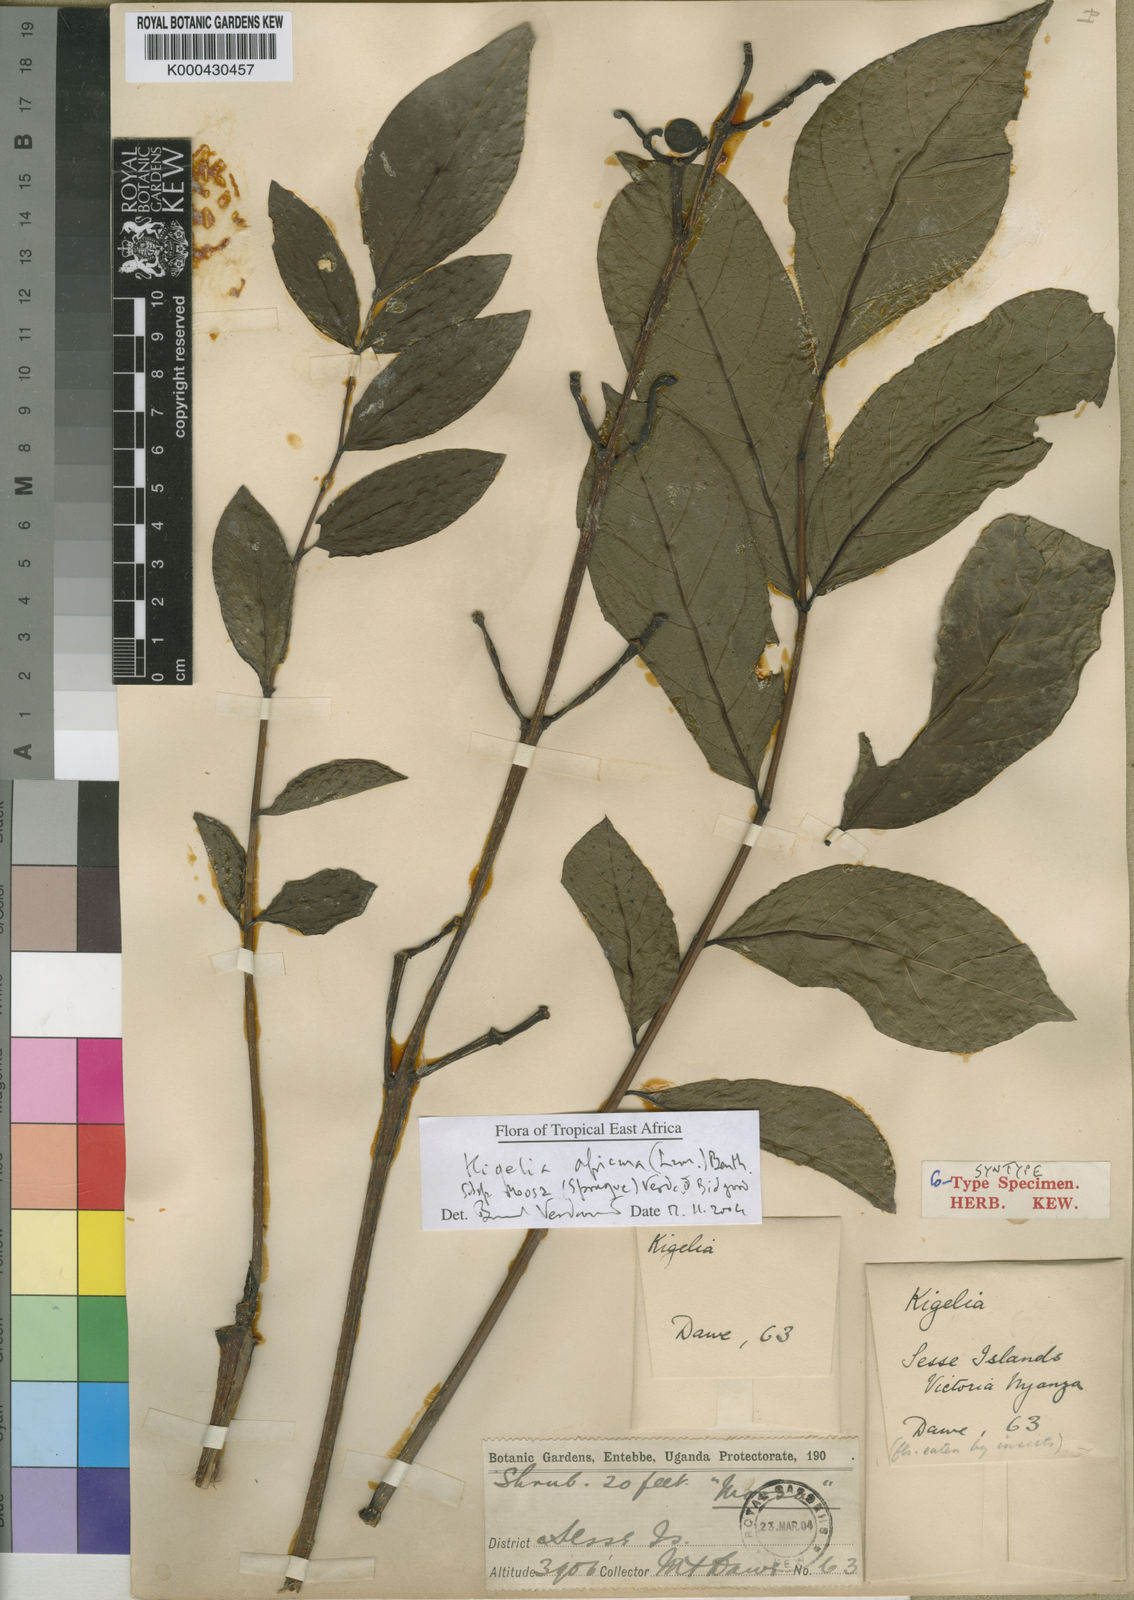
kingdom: Plantae
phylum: Tracheophyta
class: Magnoliopsida
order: Lamiales
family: Bignoniaceae
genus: Kigelia
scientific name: Kigelia africana
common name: Sausage tree
